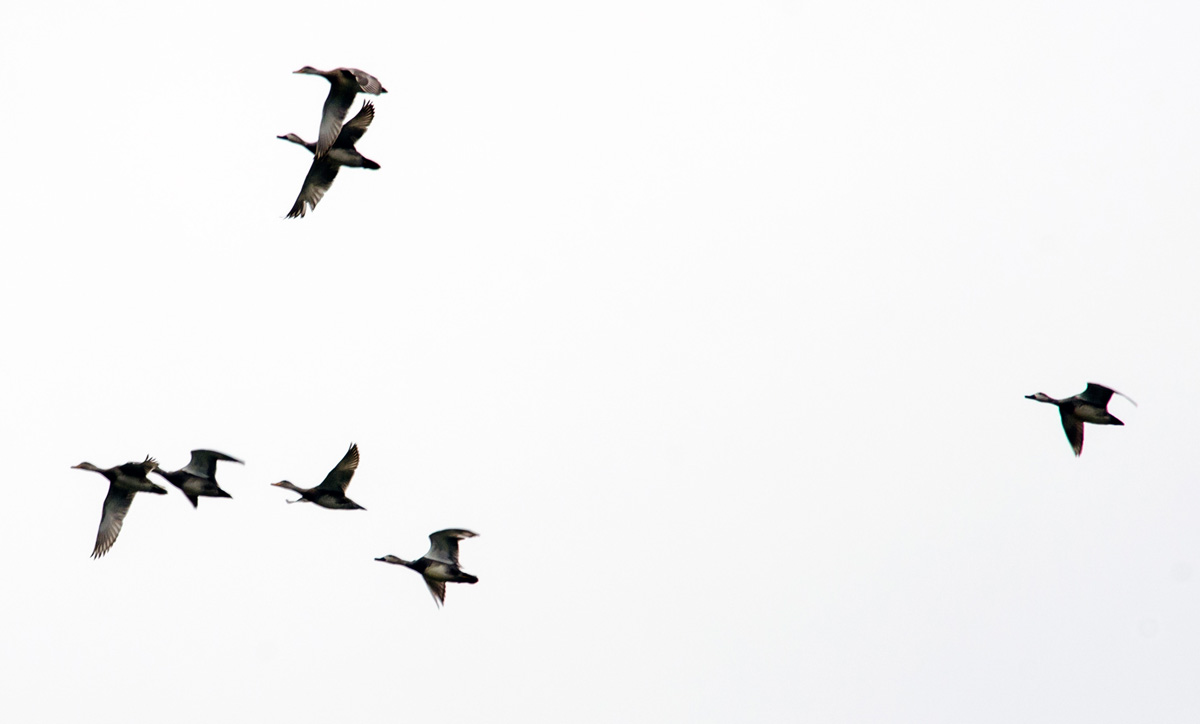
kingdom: Animalia
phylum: Chordata
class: Aves
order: Anseriformes
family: Anatidae
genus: Mareca
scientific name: Mareca strepera
